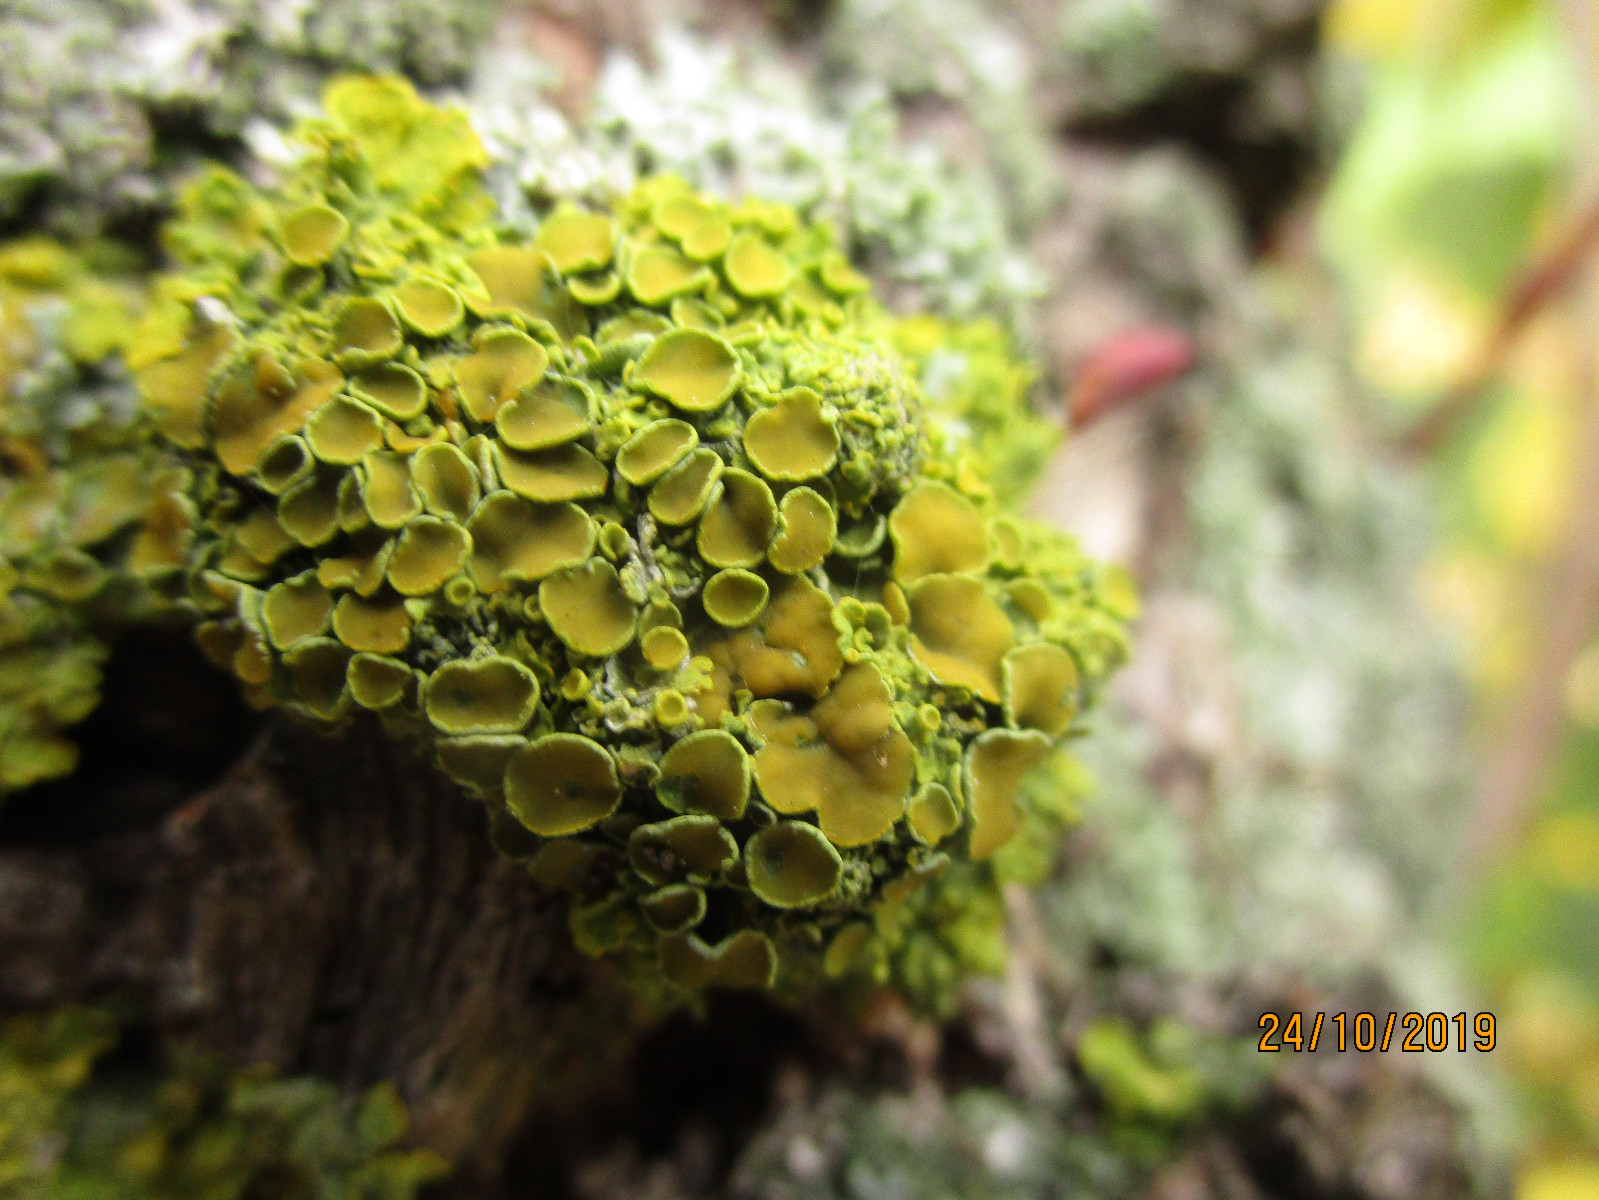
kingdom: Fungi
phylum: Ascomycota
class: Lecanoromycetes
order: Teloschistales
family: Teloschistaceae
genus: Xanthoria
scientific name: Xanthoria parietina
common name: almindelig væggelav
